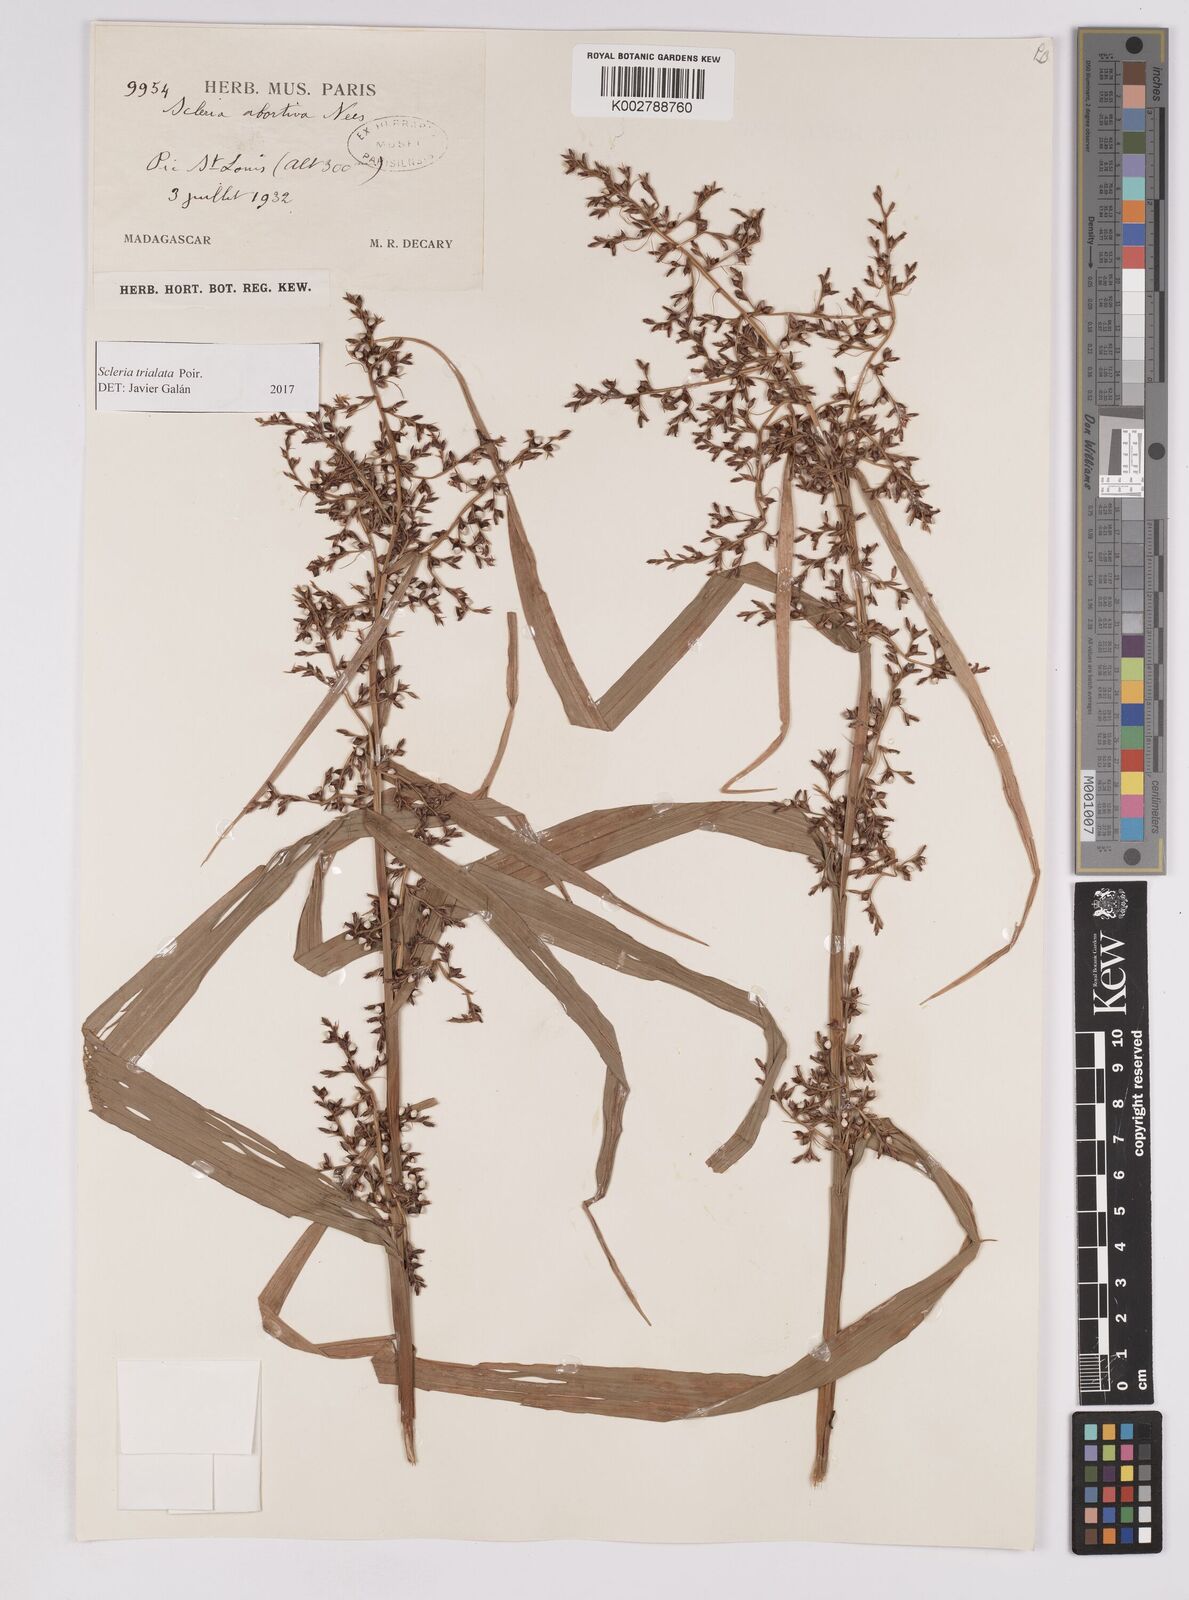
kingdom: Plantae
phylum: Tracheophyta
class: Liliopsida
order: Poales
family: Cyperaceae
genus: Scleria
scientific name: Scleria trialata
